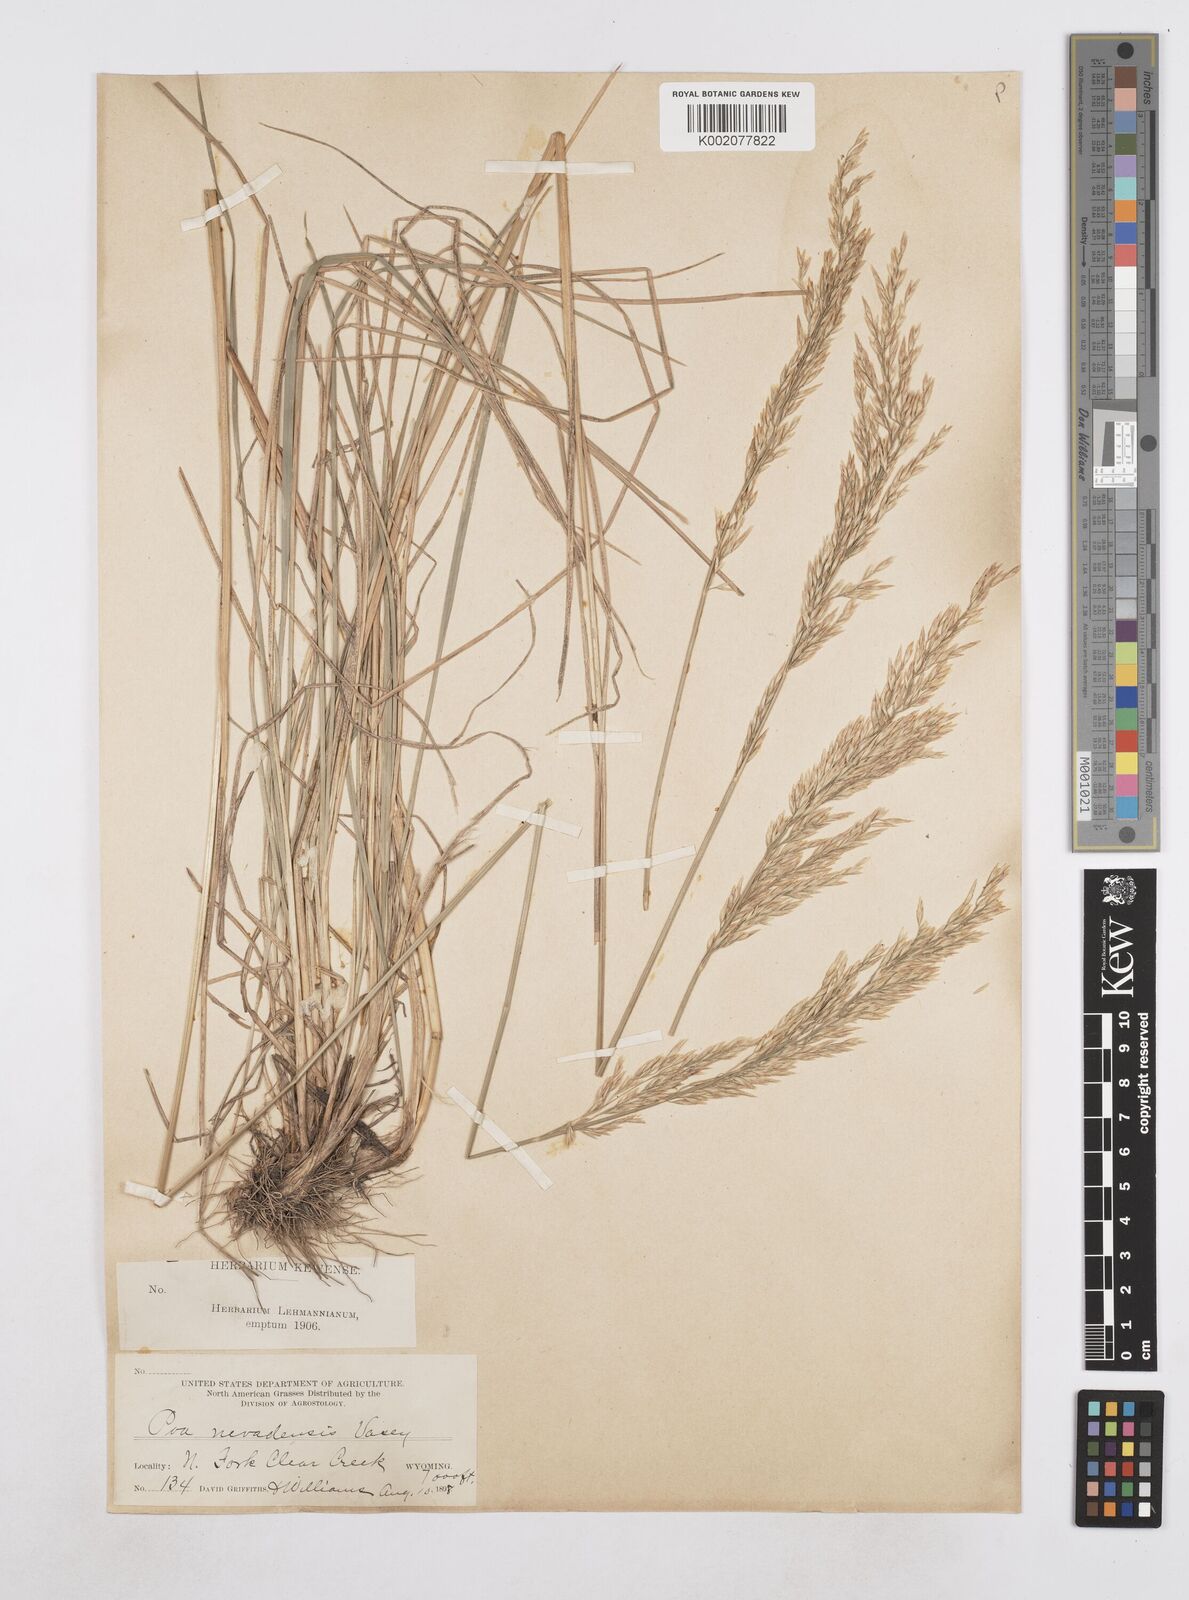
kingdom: Plantae
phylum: Tracheophyta
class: Liliopsida
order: Poales
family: Poaceae
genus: Poa
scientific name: Poa secunda
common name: Sandberg bluegrass
